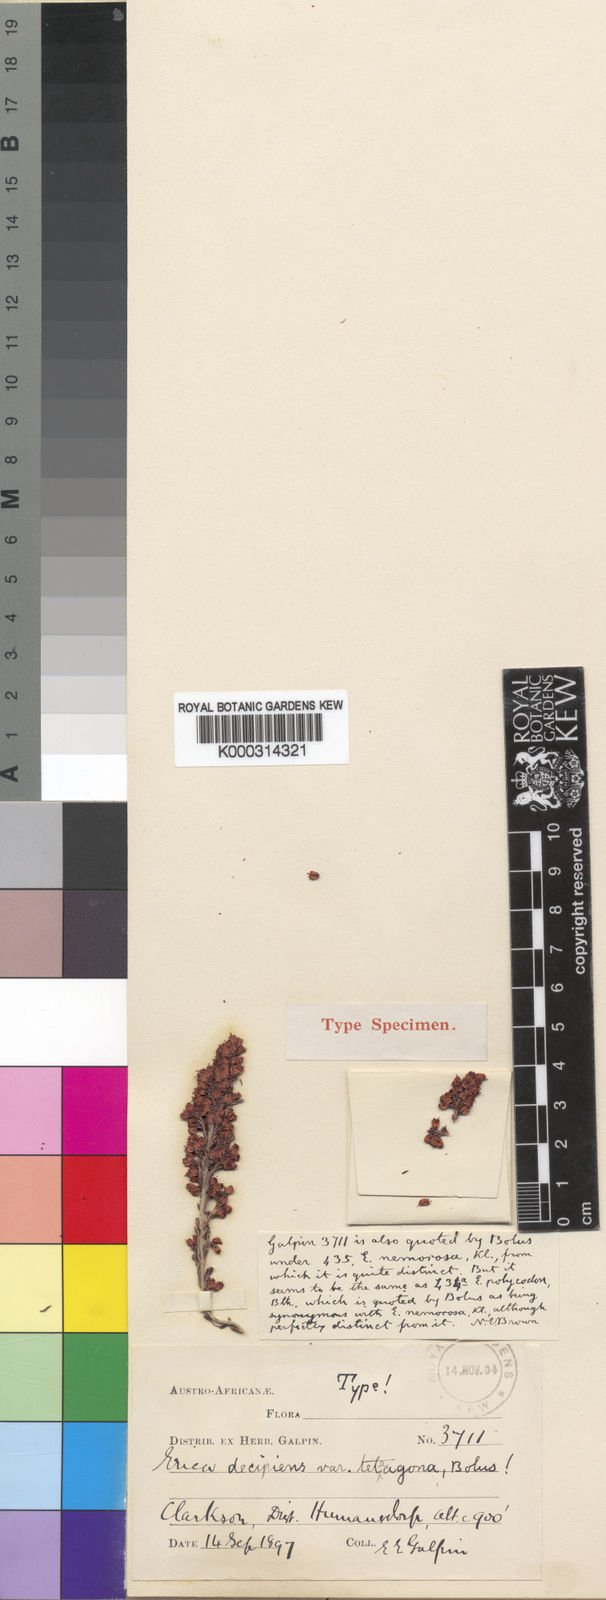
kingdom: Plantae
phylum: Tracheophyta
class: Magnoliopsida
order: Ericales
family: Ericaceae
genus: Erica
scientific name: Erica
